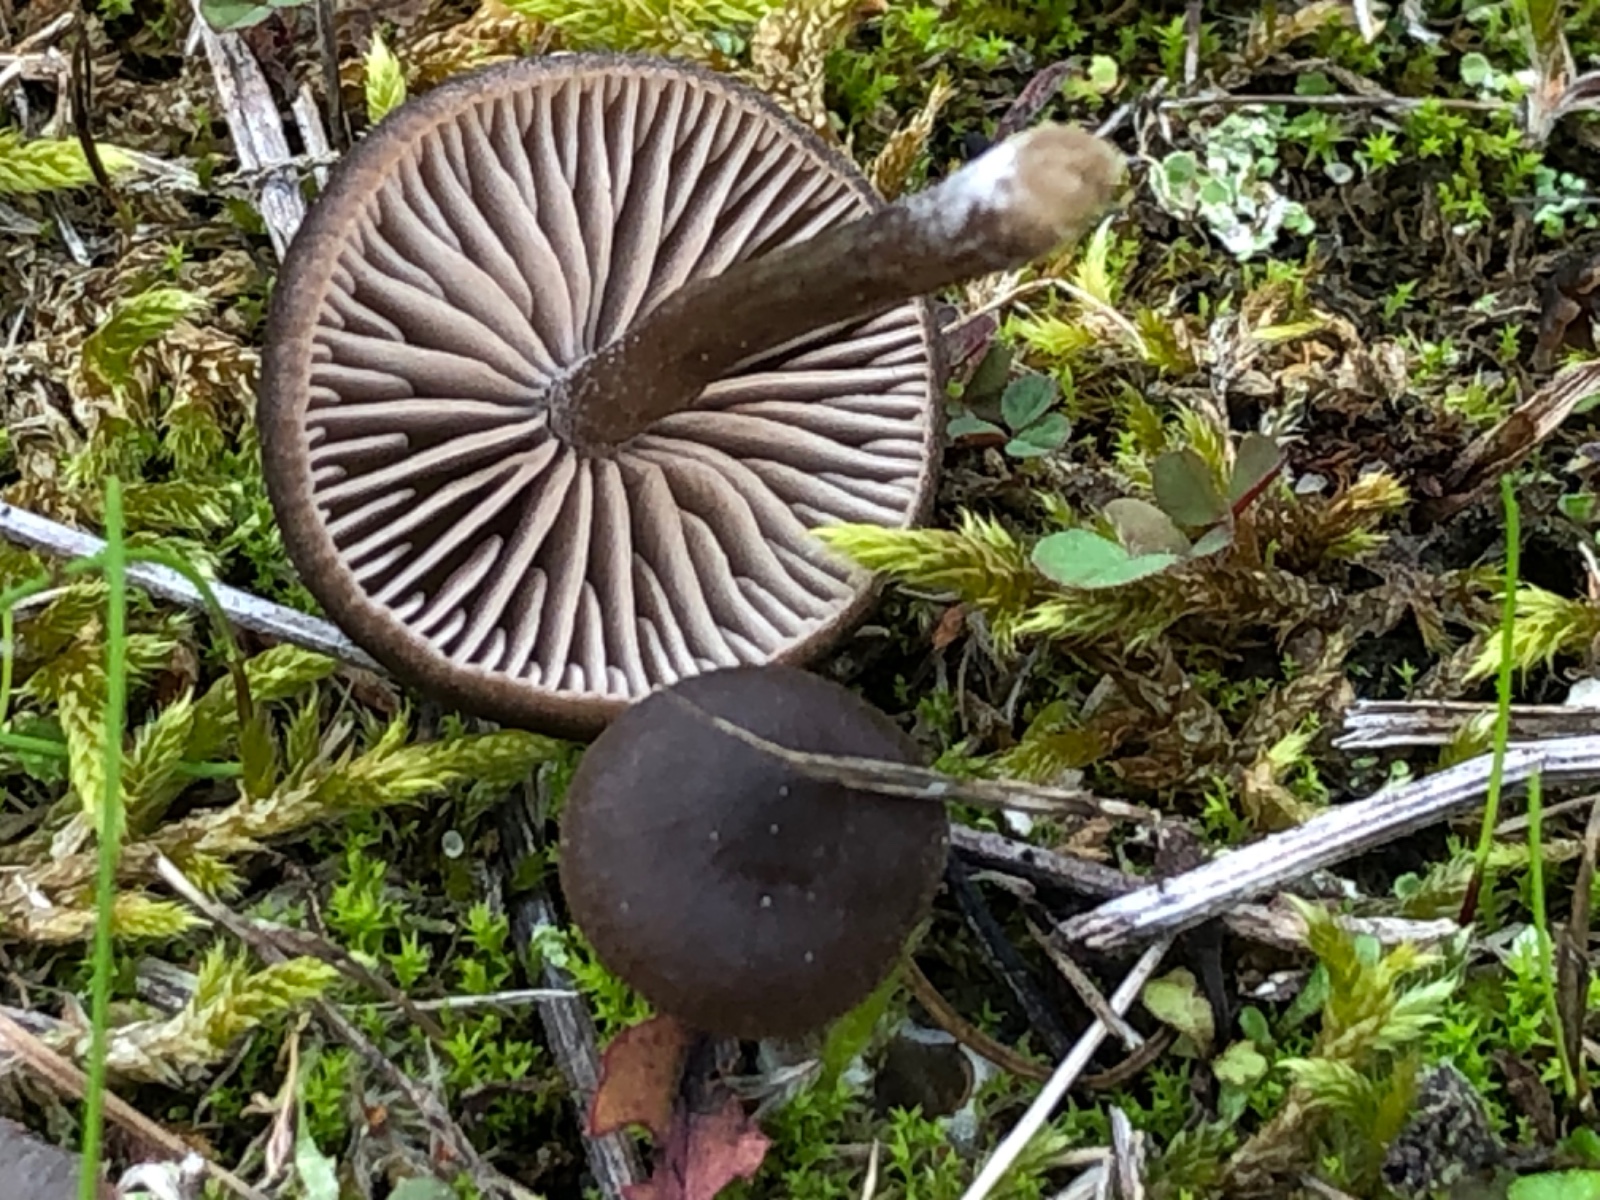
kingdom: Fungi
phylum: Basidiomycota
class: Agaricomycetes
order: Agaricales
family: Entolomataceae
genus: Entoloma
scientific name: Entoloma vindobonense
